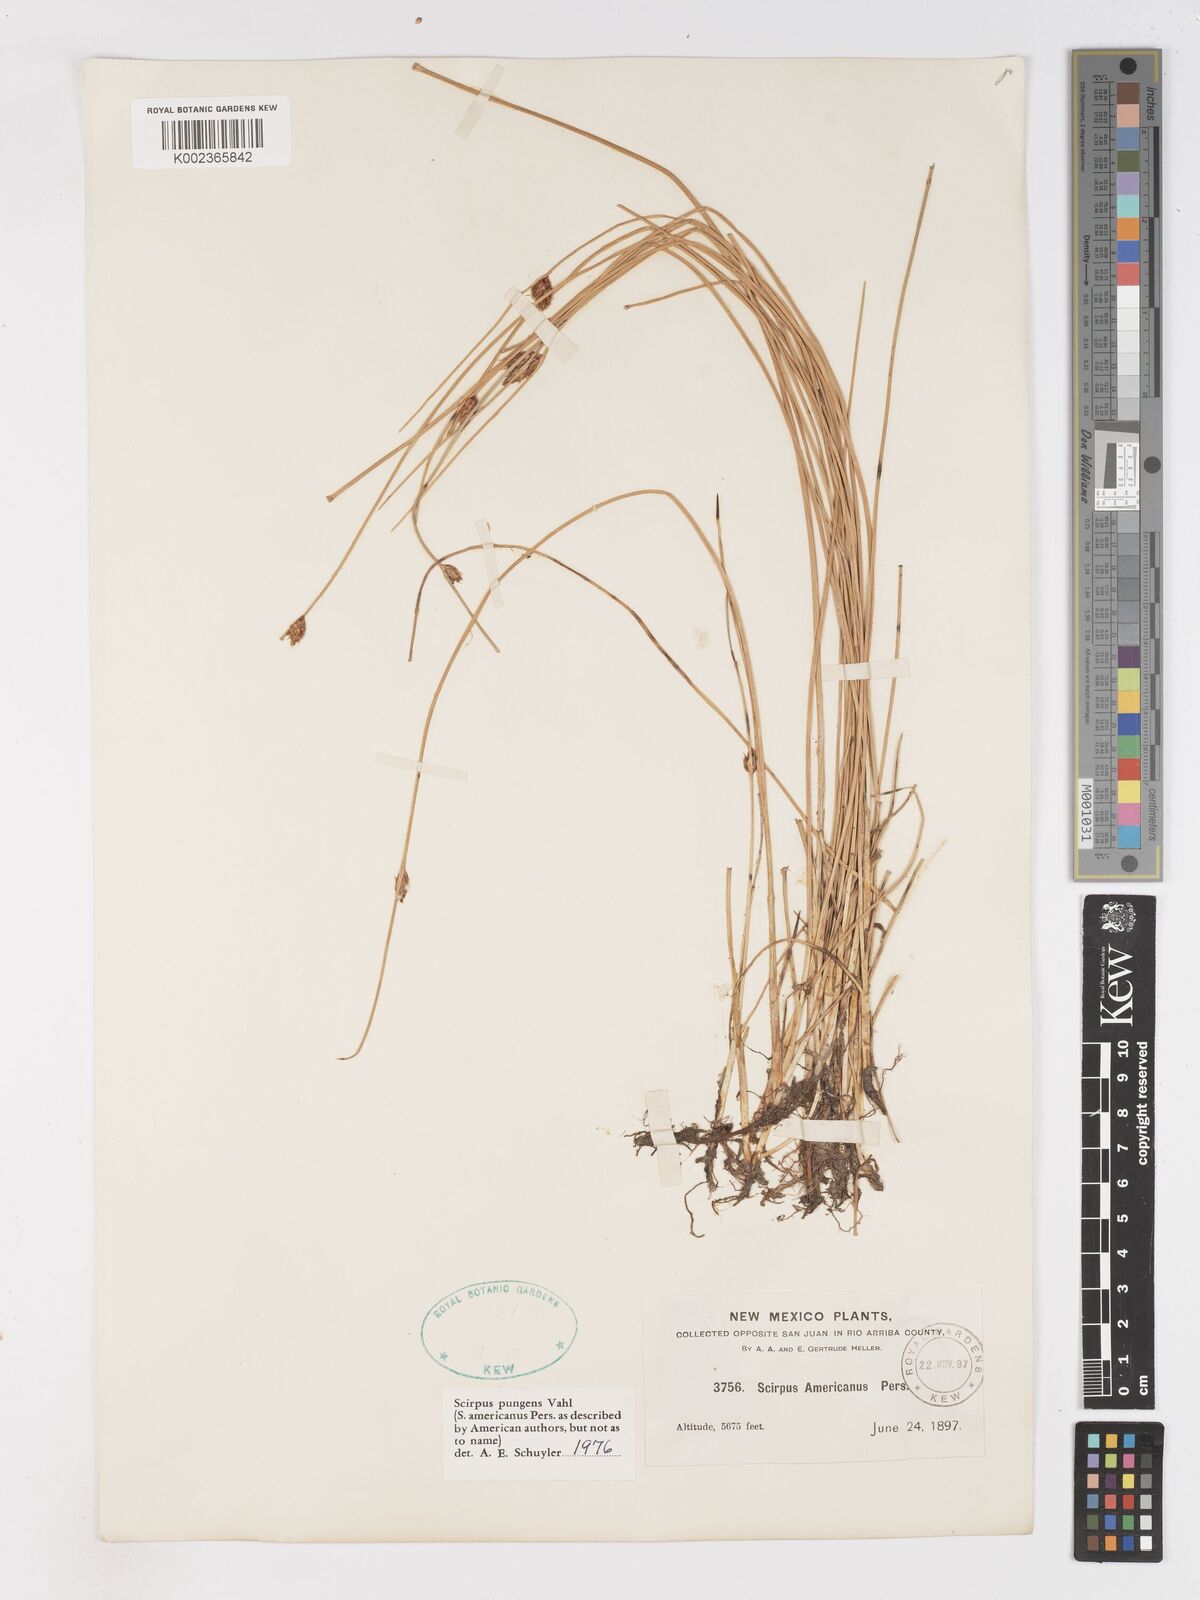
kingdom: Plantae
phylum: Tracheophyta
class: Liliopsida
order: Poales
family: Cyperaceae
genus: Schoenoplectus
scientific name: Schoenoplectus pungens
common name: Sharp club-rush
